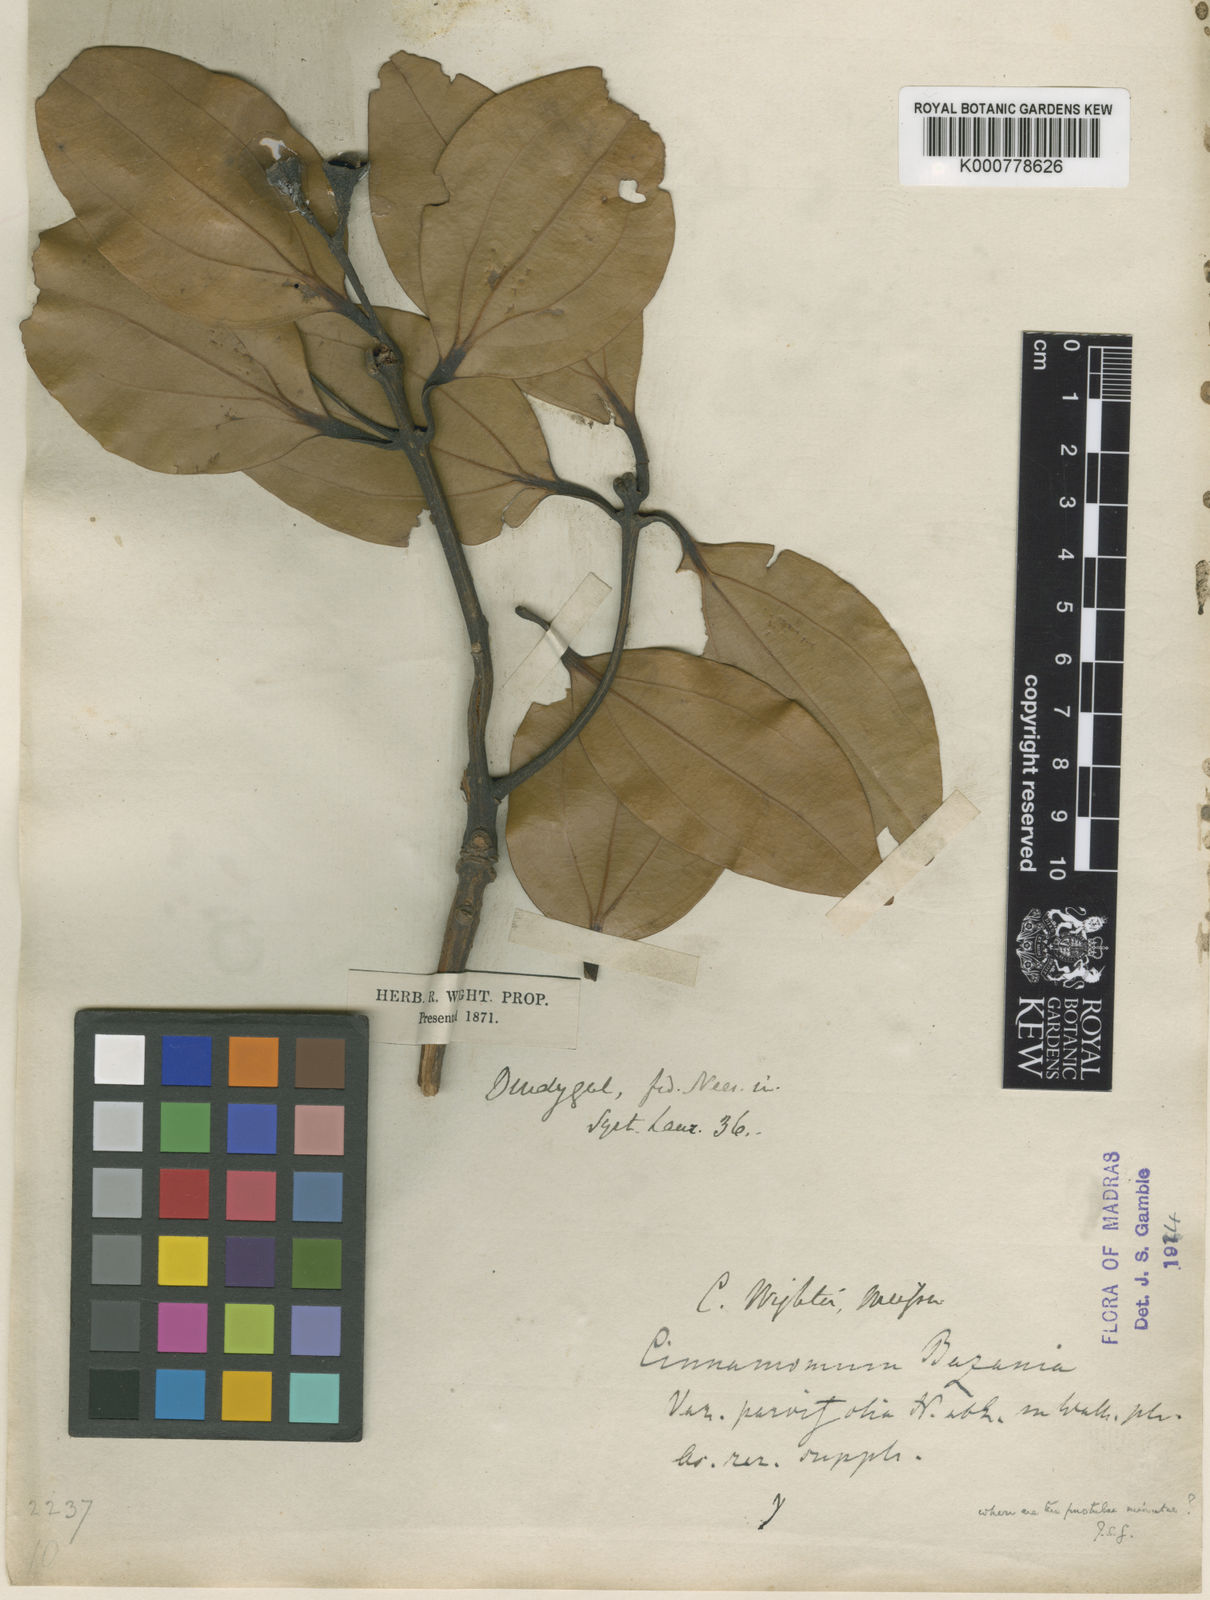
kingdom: Plantae
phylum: Tracheophyta
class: Magnoliopsida
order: Laurales
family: Lauraceae
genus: Cinnamomum
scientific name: Cinnamomum
